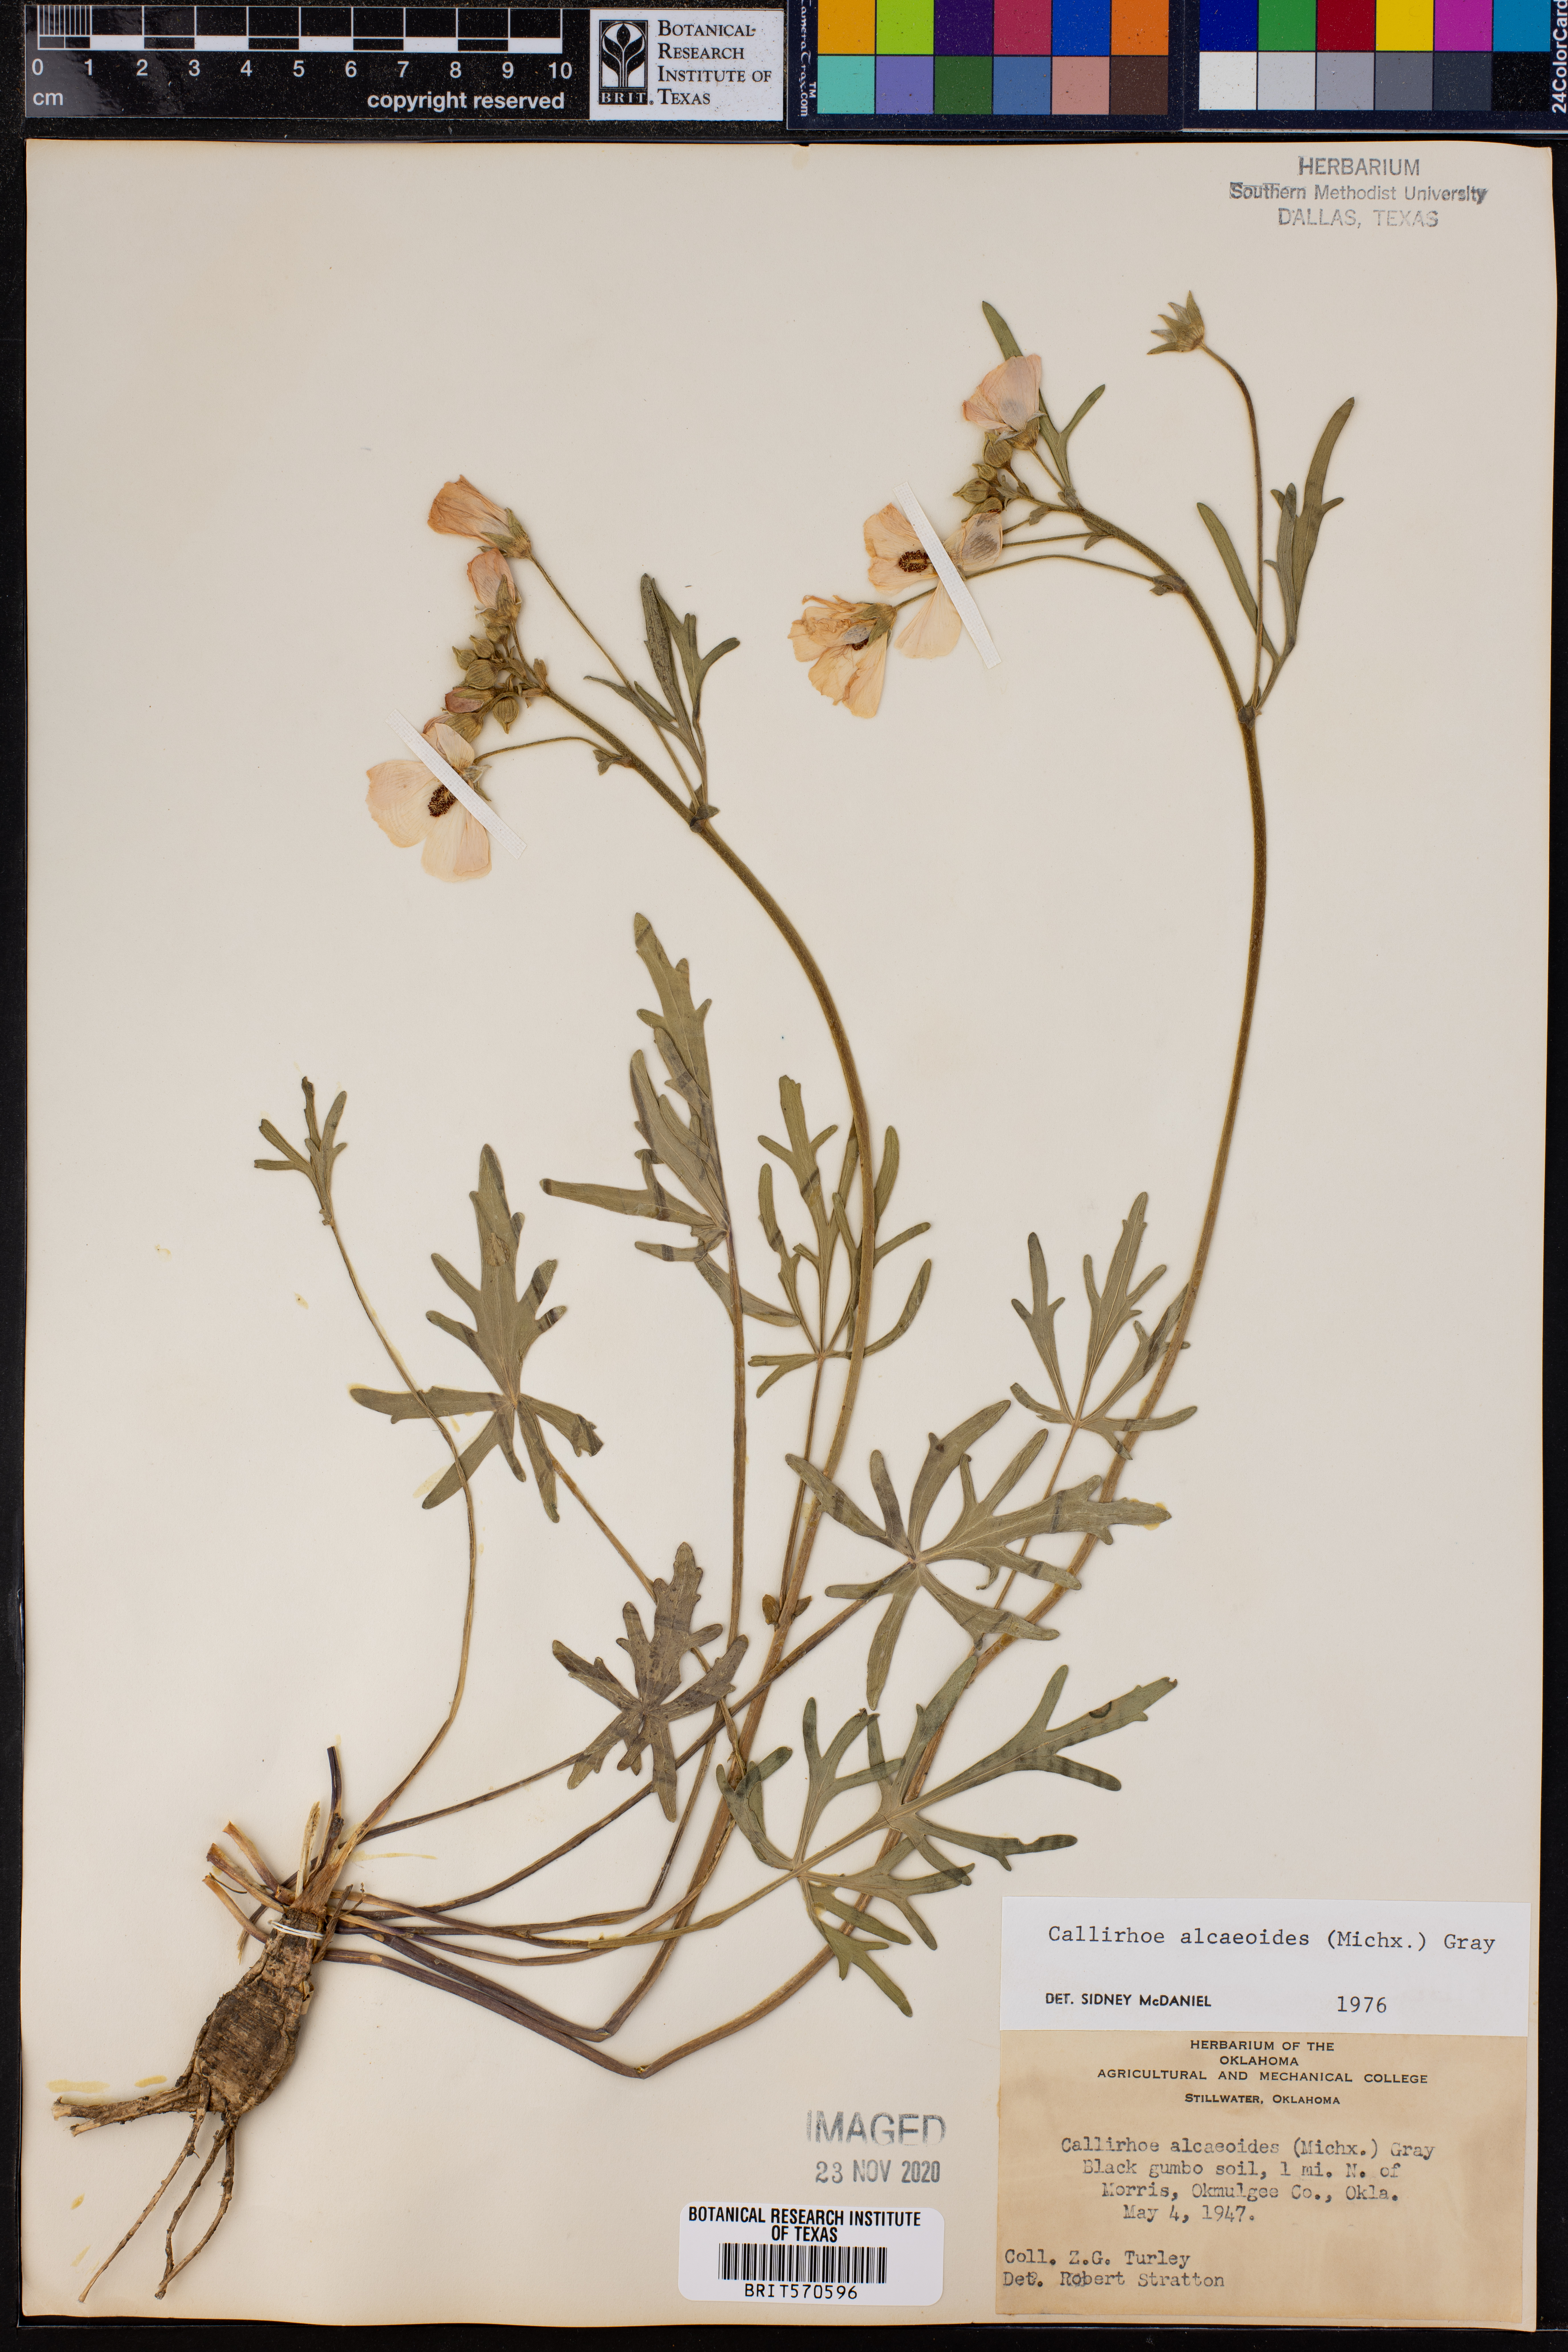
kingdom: Plantae
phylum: Tracheophyta
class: Magnoliopsida
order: Malvales
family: Malvaceae
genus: Callirhoe
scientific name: Callirhoe alcaeoides
